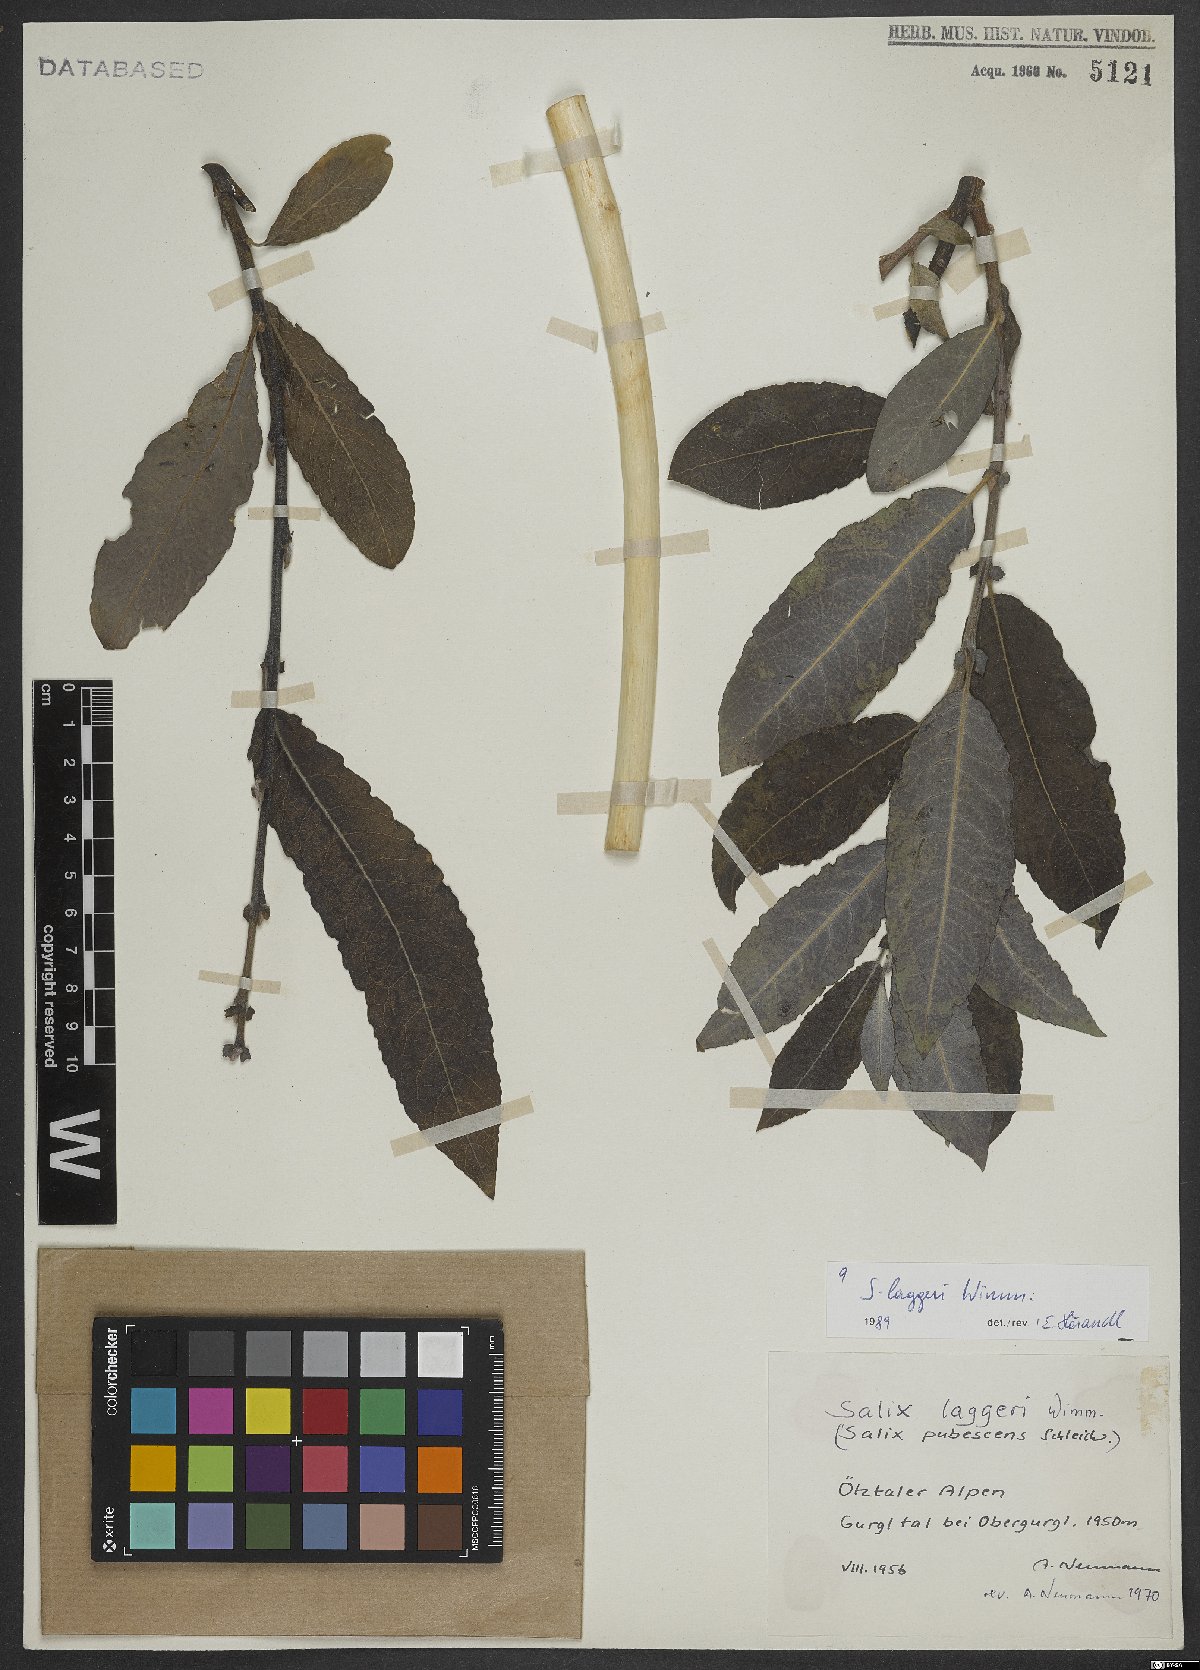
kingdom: Plantae
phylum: Tracheophyta
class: Magnoliopsida
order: Malpighiales
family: Salicaceae
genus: Salix
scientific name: Salix laggeri
